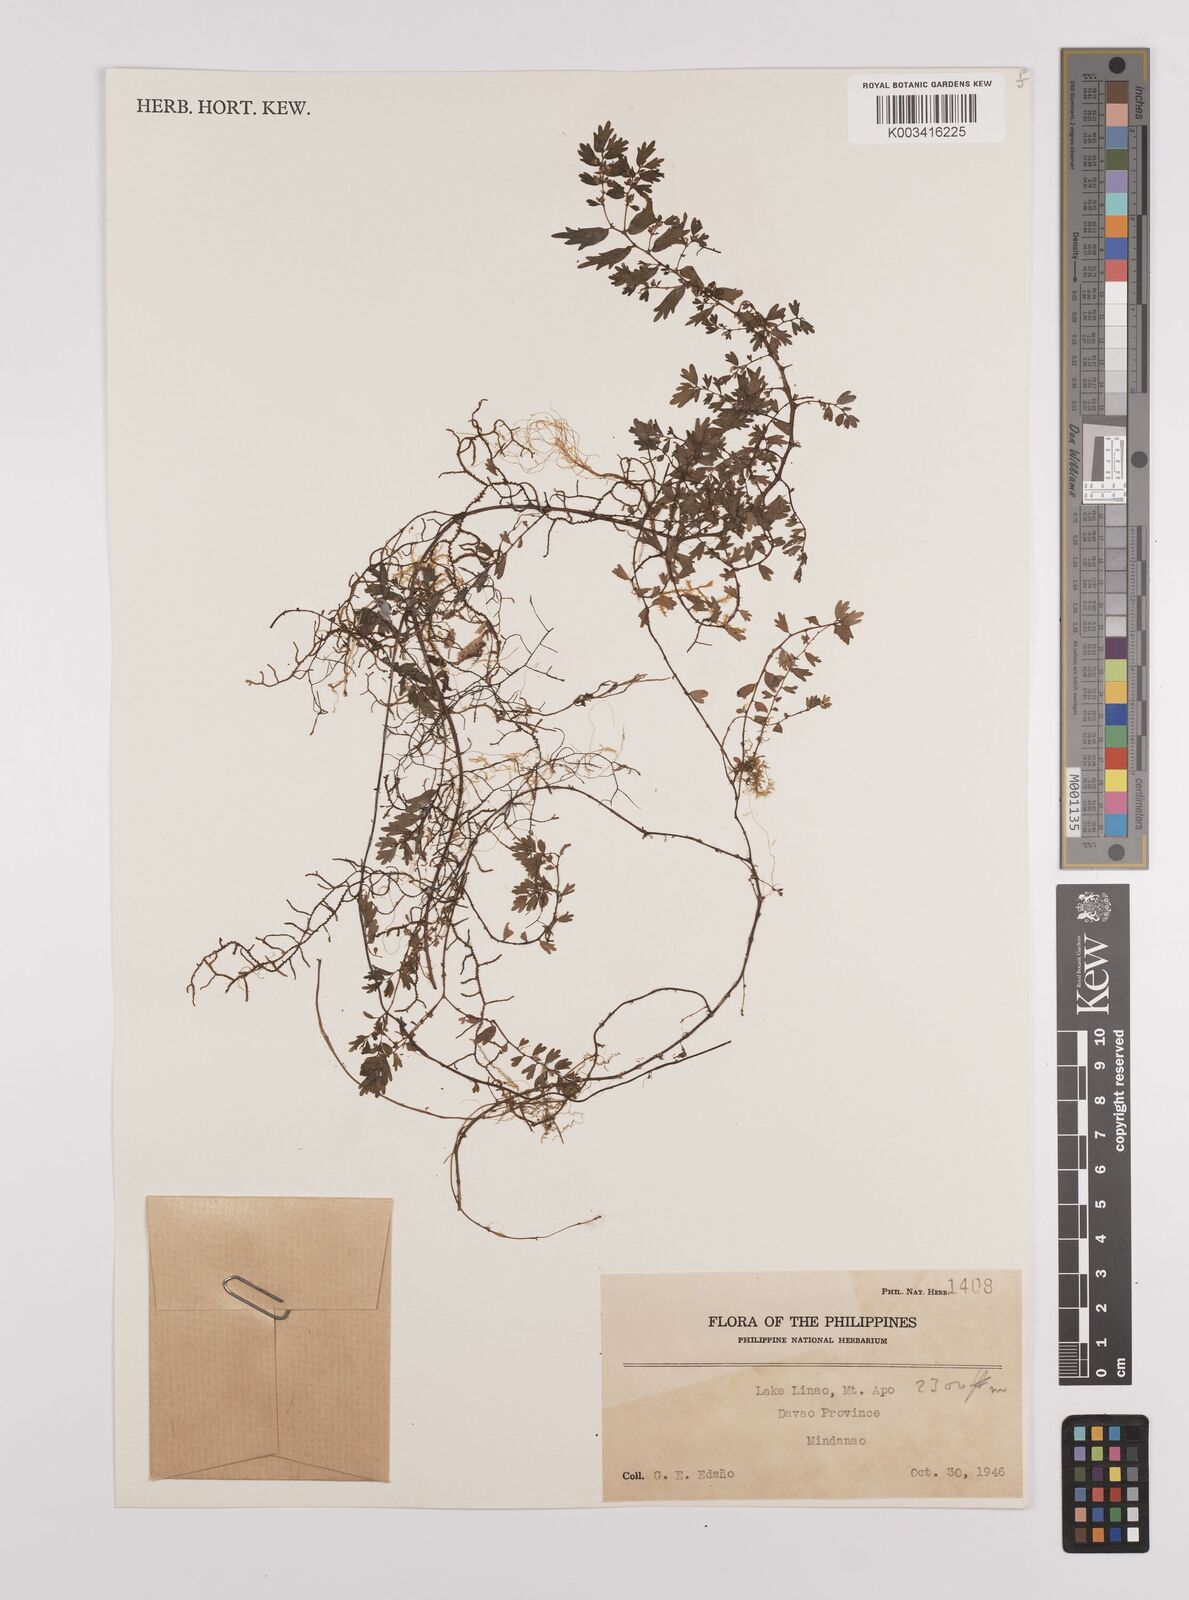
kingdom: Plantae
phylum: Tracheophyta
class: Magnoliopsida
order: Rosales
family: Urticaceae
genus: Elatostema
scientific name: Elatostema
